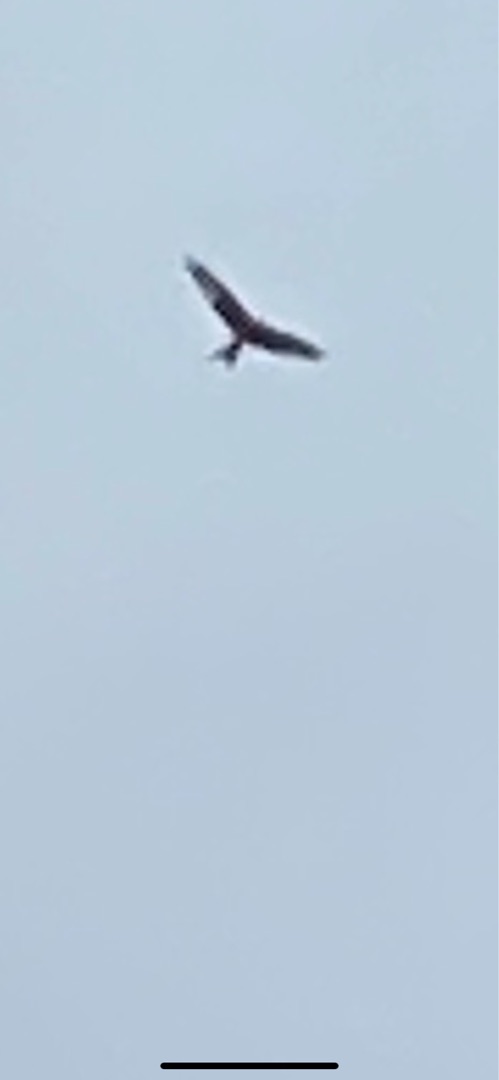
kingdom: Animalia
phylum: Chordata
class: Aves
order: Accipitriformes
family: Accipitridae
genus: Milvus
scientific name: Milvus milvus
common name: Rød glente
